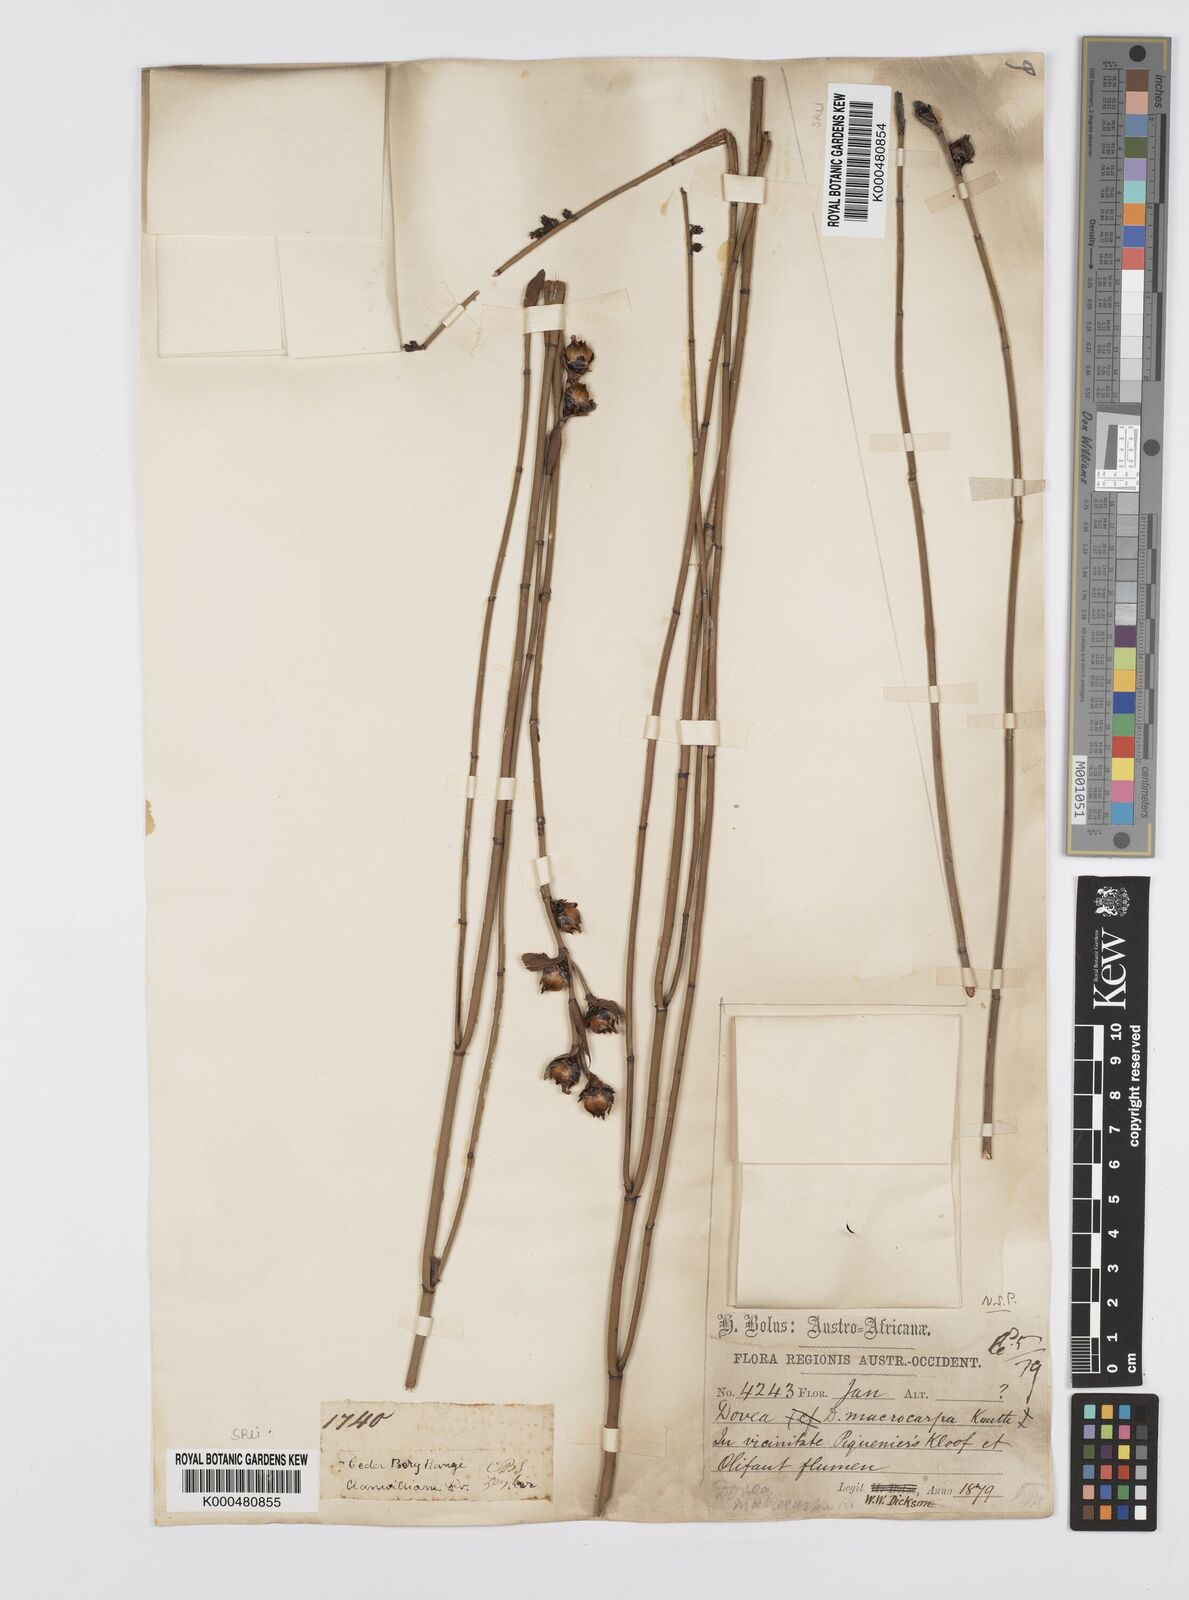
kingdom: Plantae
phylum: Tracheophyta
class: Liliopsida
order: Poales
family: Restionaceae
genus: Elegia
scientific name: Elegia macrocarpa
